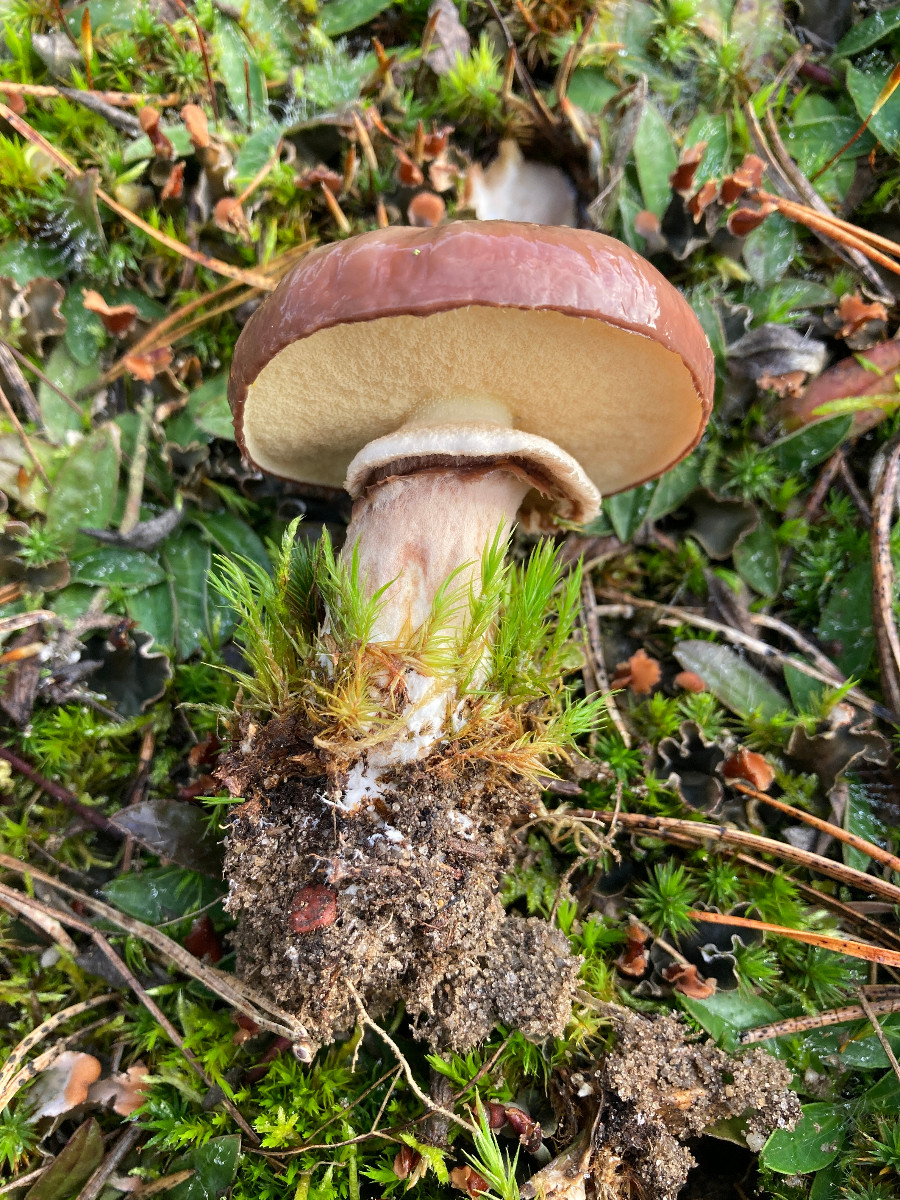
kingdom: Fungi
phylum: Basidiomycota
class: Agaricomycetes
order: Boletales
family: Suillaceae
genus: Suillus
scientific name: Suillus luteus
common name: brungul slimrørhat
